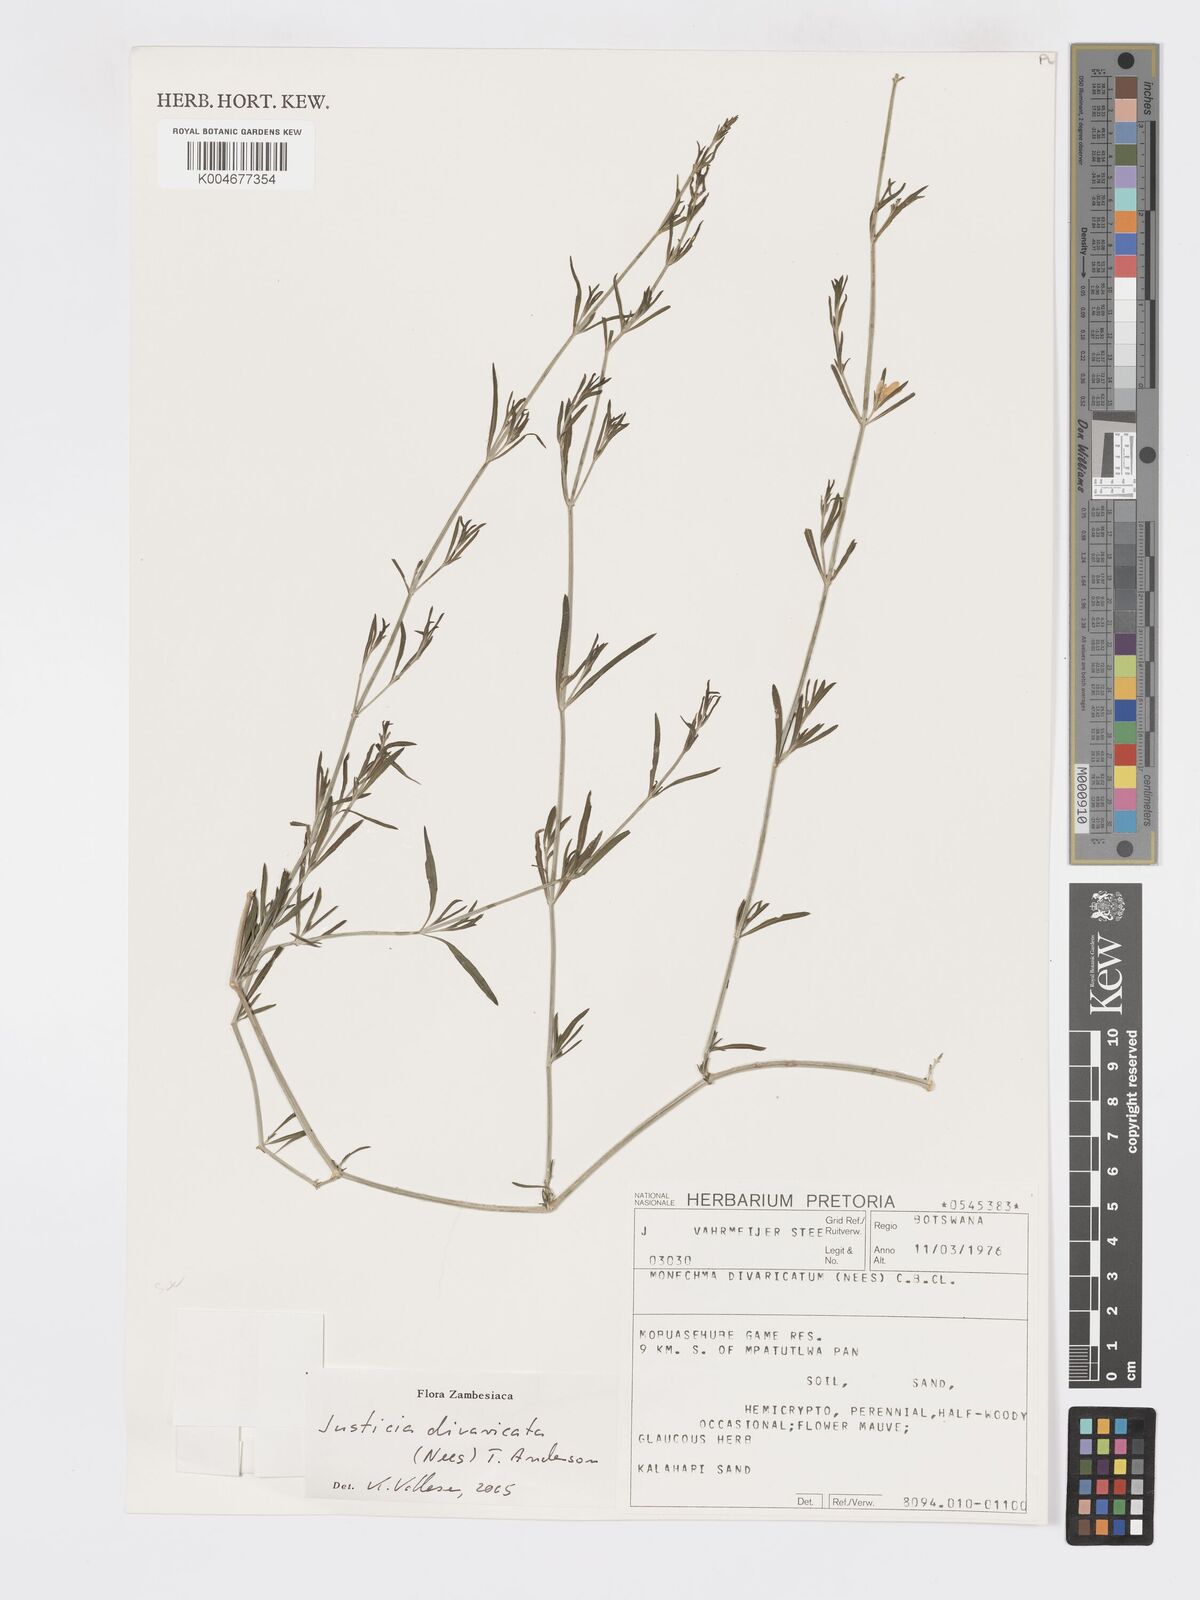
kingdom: Plantae
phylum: Tracheophyta
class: Magnoliopsida
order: Lamiales
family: Acanthaceae
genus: Pogonospermum
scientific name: Pogonospermum
